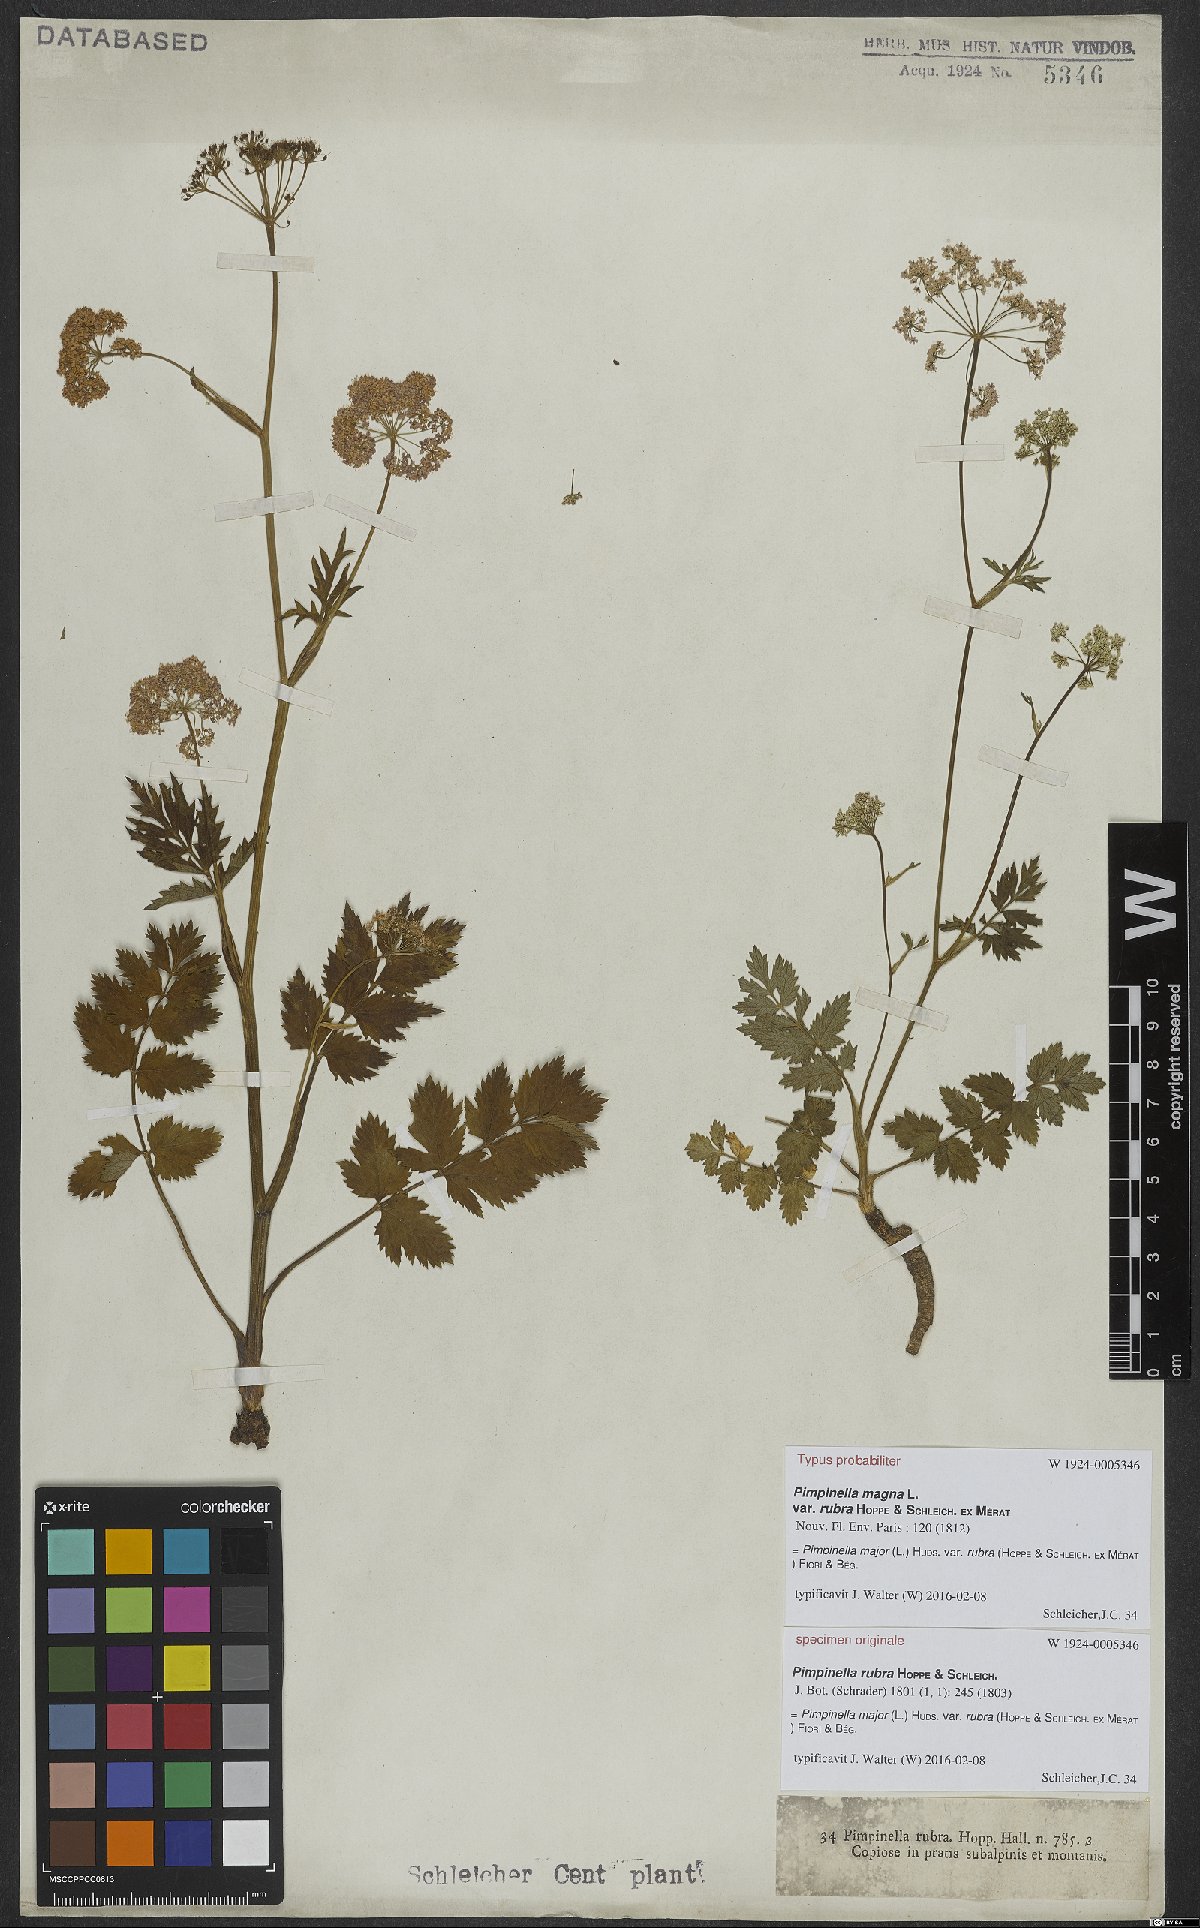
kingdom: Plantae
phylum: Tracheophyta
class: Magnoliopsida
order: Apiales
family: Apiaceae
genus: Pimpinella
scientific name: Pimpinella major
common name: Greater burnet-saxifrage
